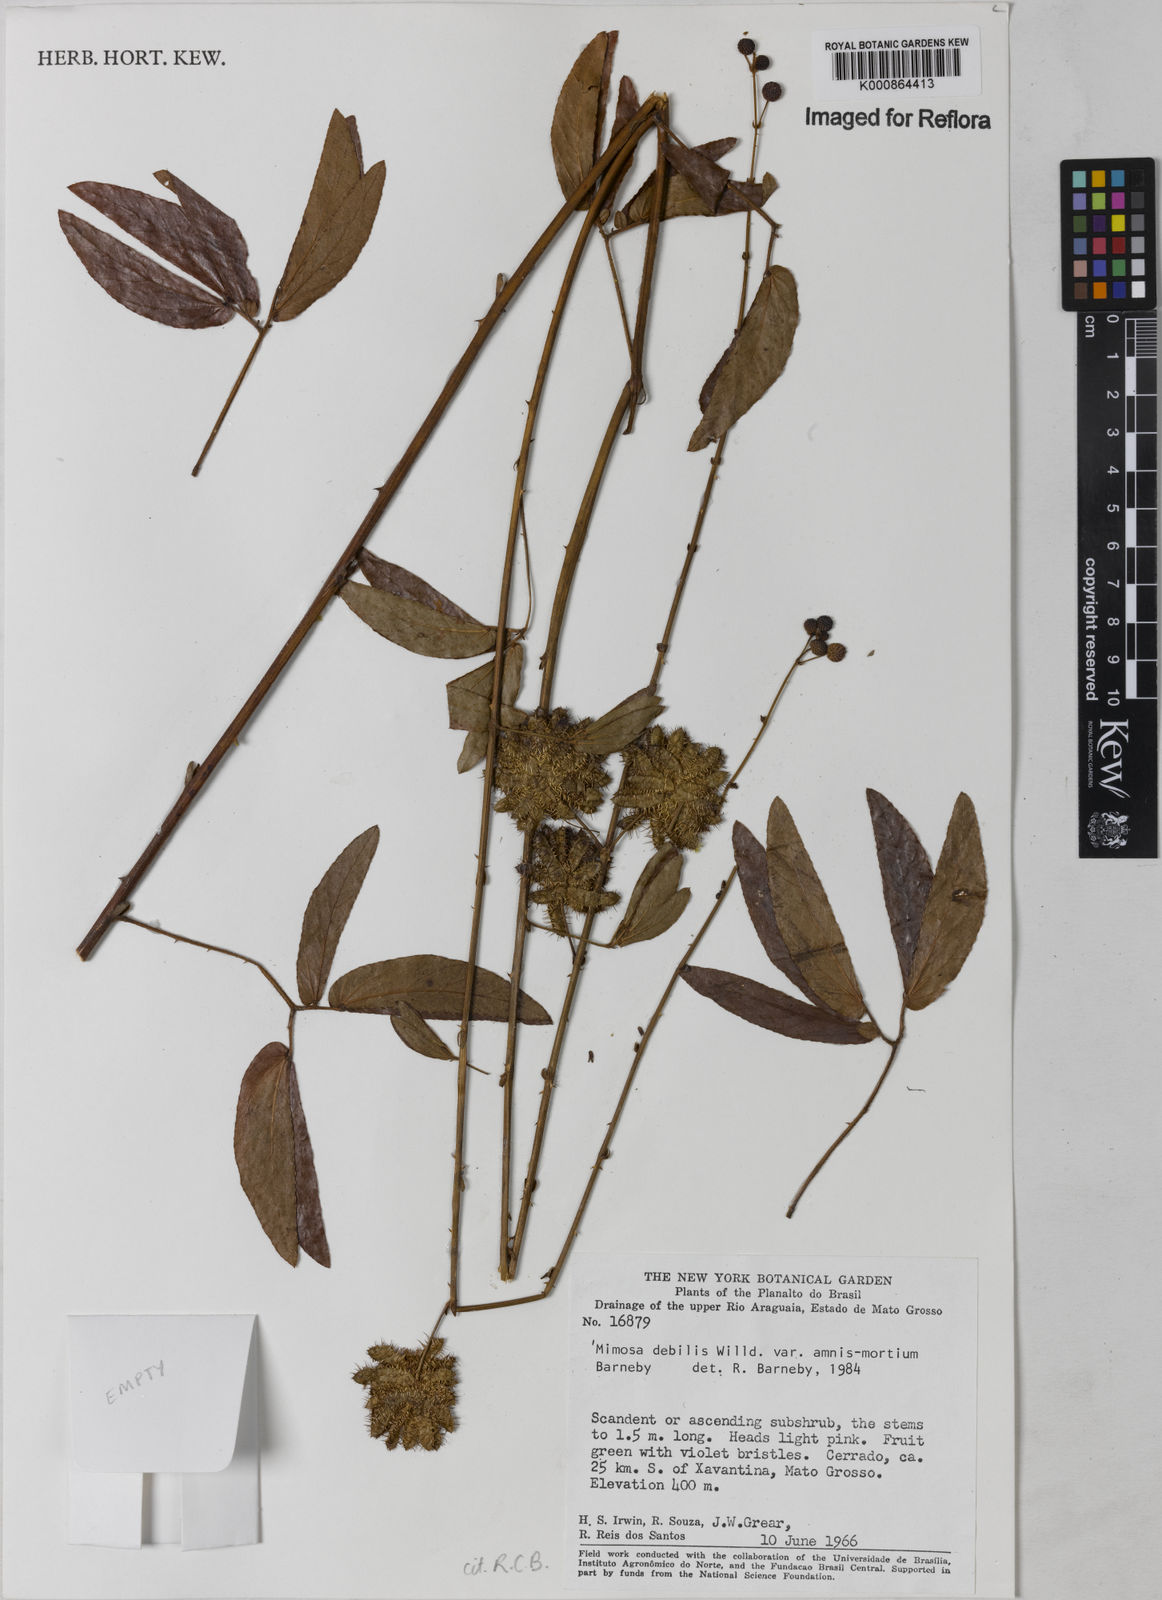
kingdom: Plantae
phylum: Tracheophyta
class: Magnoliopsida
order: Fabales
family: Fabaceae
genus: Mimosa
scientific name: Mimosa debilis
